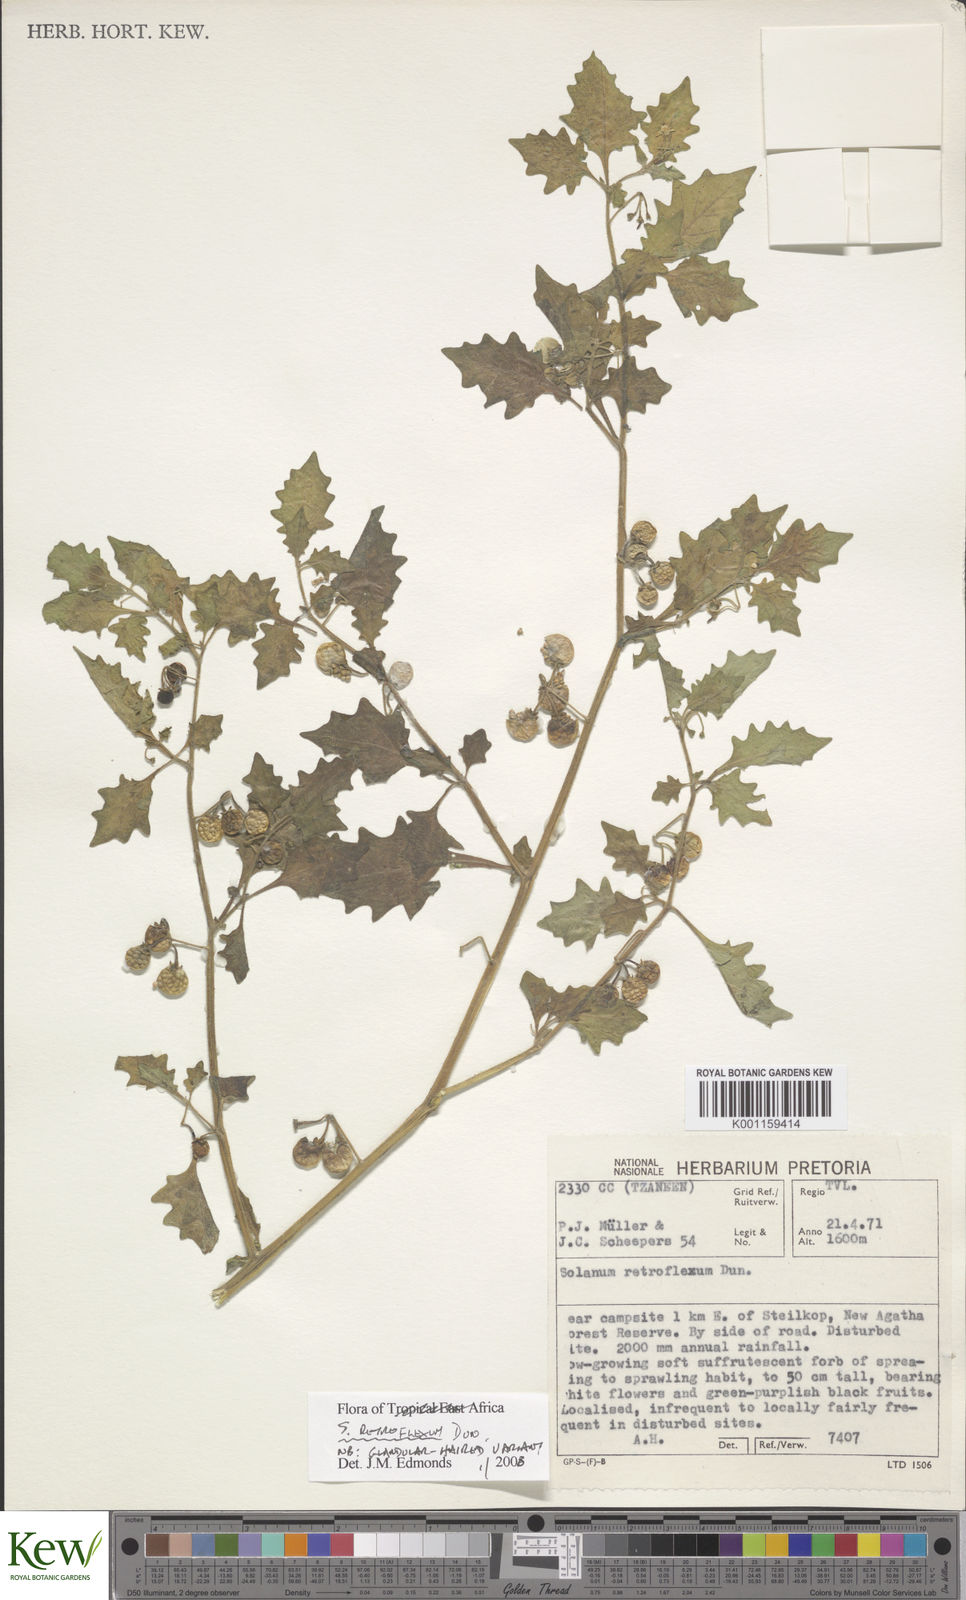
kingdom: Plantae
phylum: Tracheophyta
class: Magnoliopsida
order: Solanales
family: Solanaceae
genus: Solanum
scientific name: Solanum retroflexum
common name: Wonderberry
